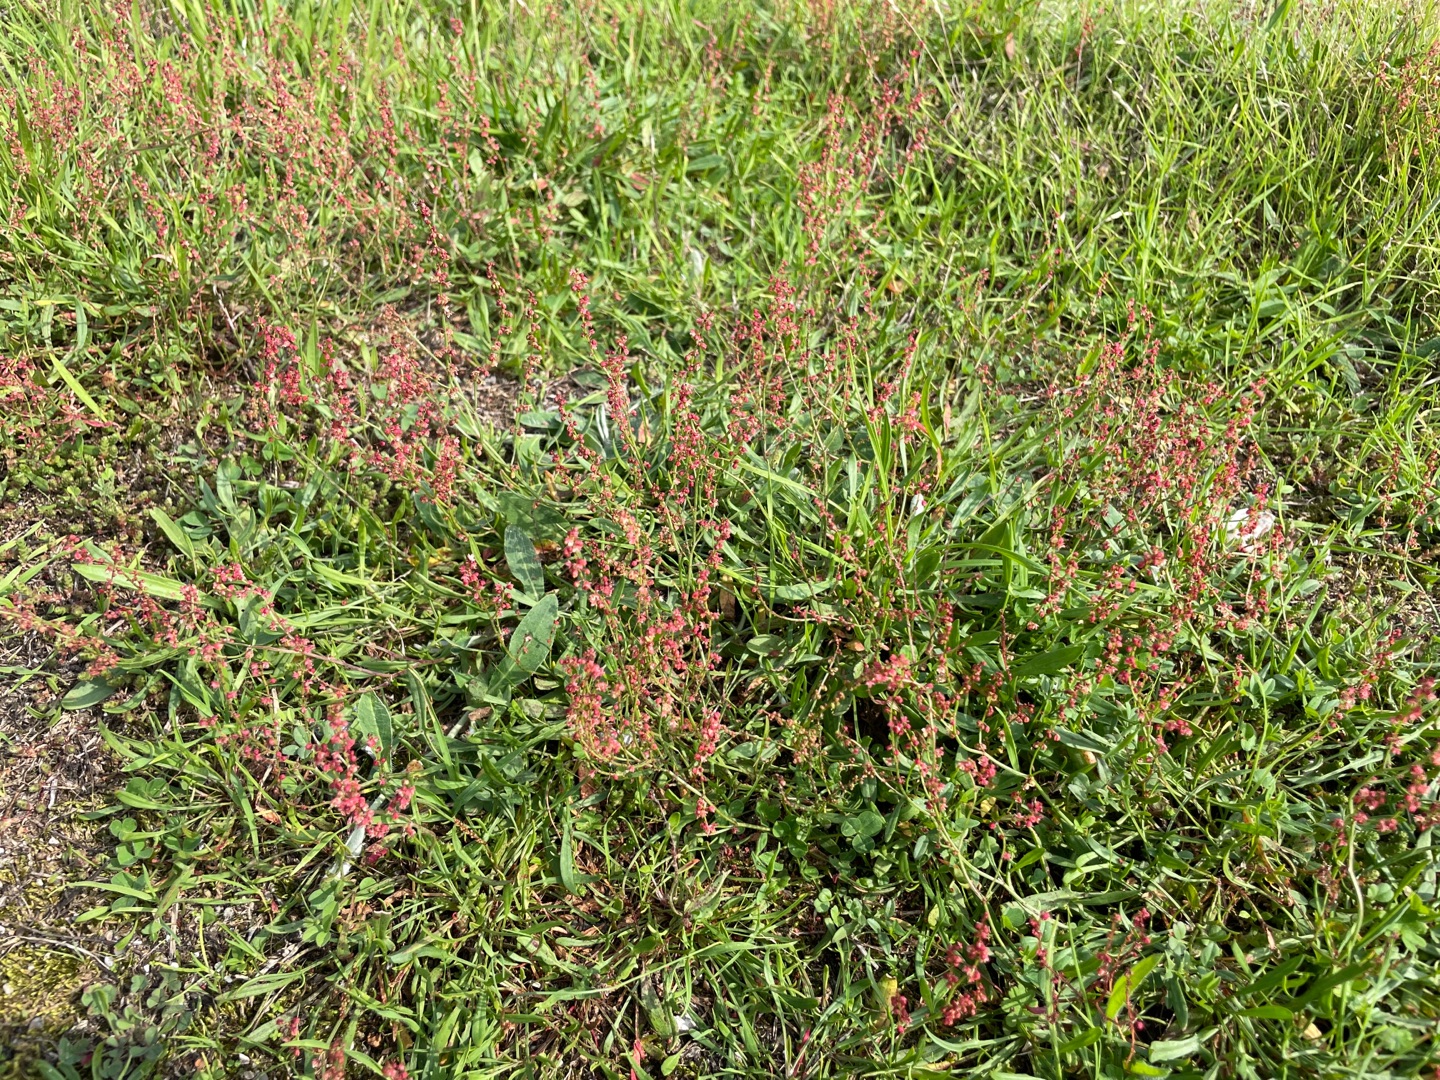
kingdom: Plantae
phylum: Tracheophyta
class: Magnoliopsida
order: Caryophyllales
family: Polygonaceae
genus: Rumex
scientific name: Rumex acetosella
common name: Rødknæ
